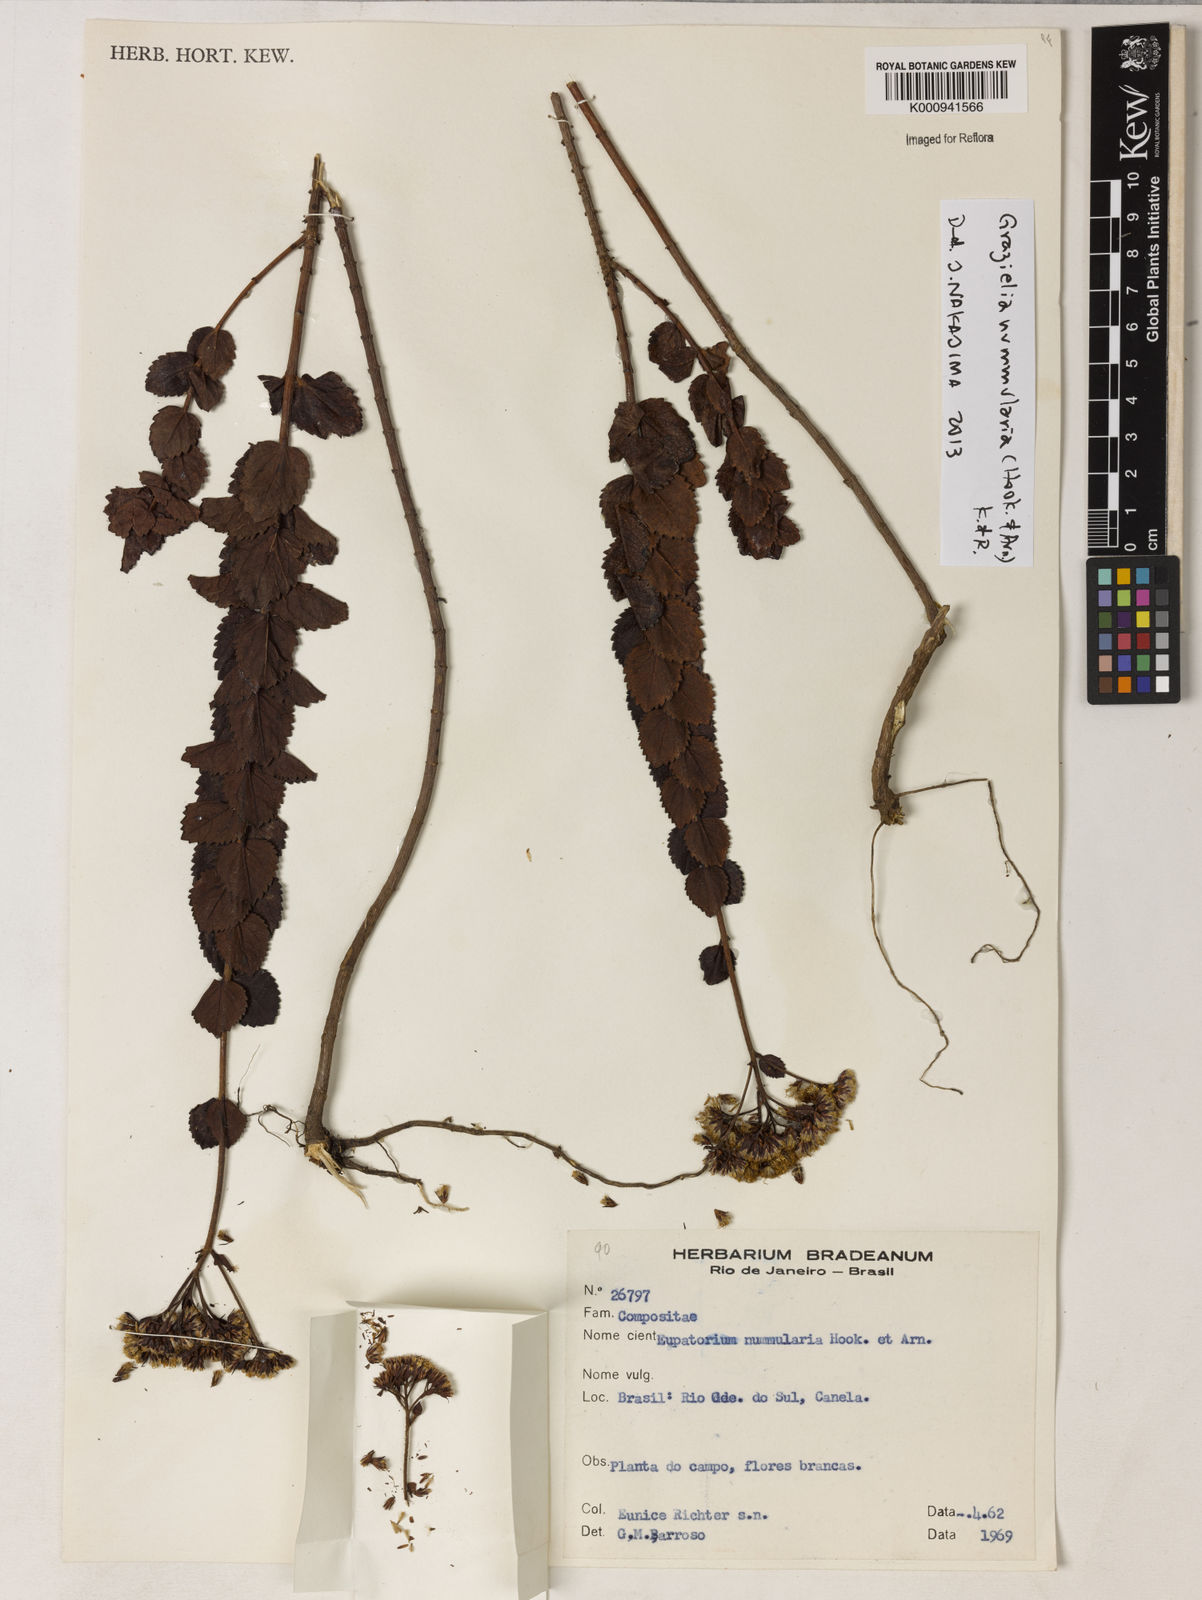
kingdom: Plantae
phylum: Tracheophyta
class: Magnoliopsida
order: Asterales
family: Asteraceae
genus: Grazielia
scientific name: Grazielia nummularia
